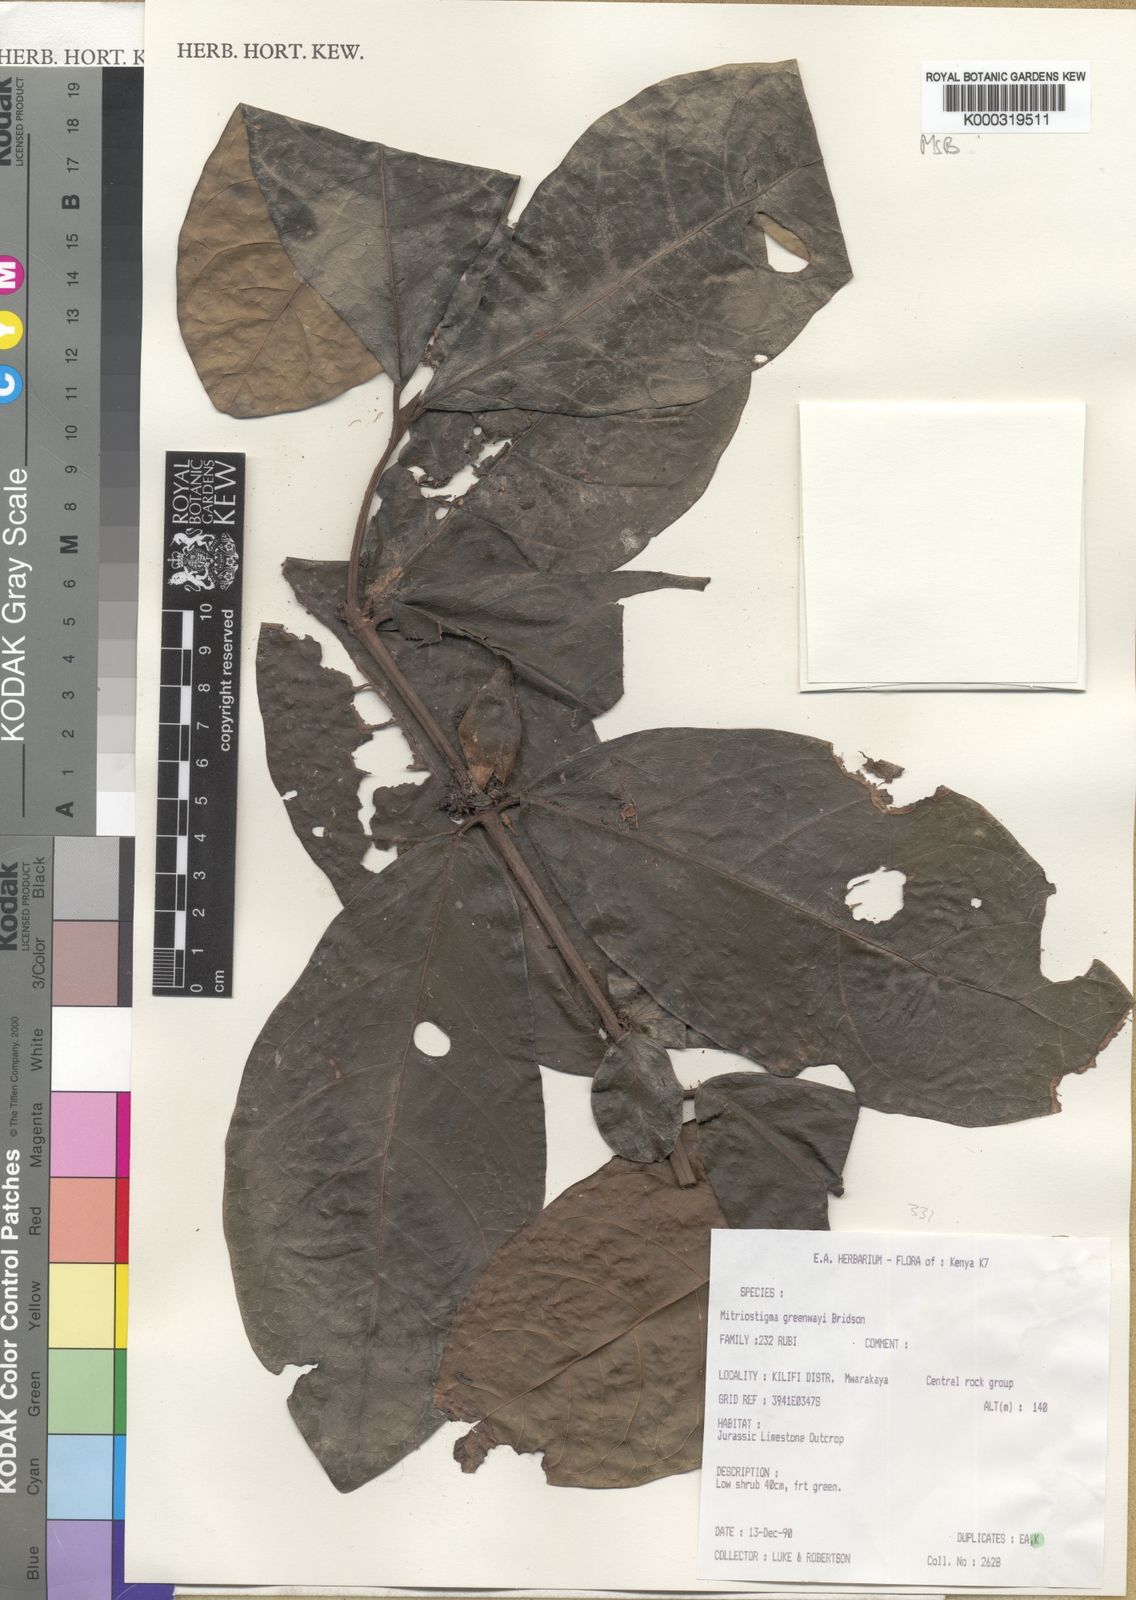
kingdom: Plantae
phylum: Tracheophyta
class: Magnoliopsida
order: Gentianales
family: Rubiaceae
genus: Mitriostigma
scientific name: Mitriostigma greenwayi
